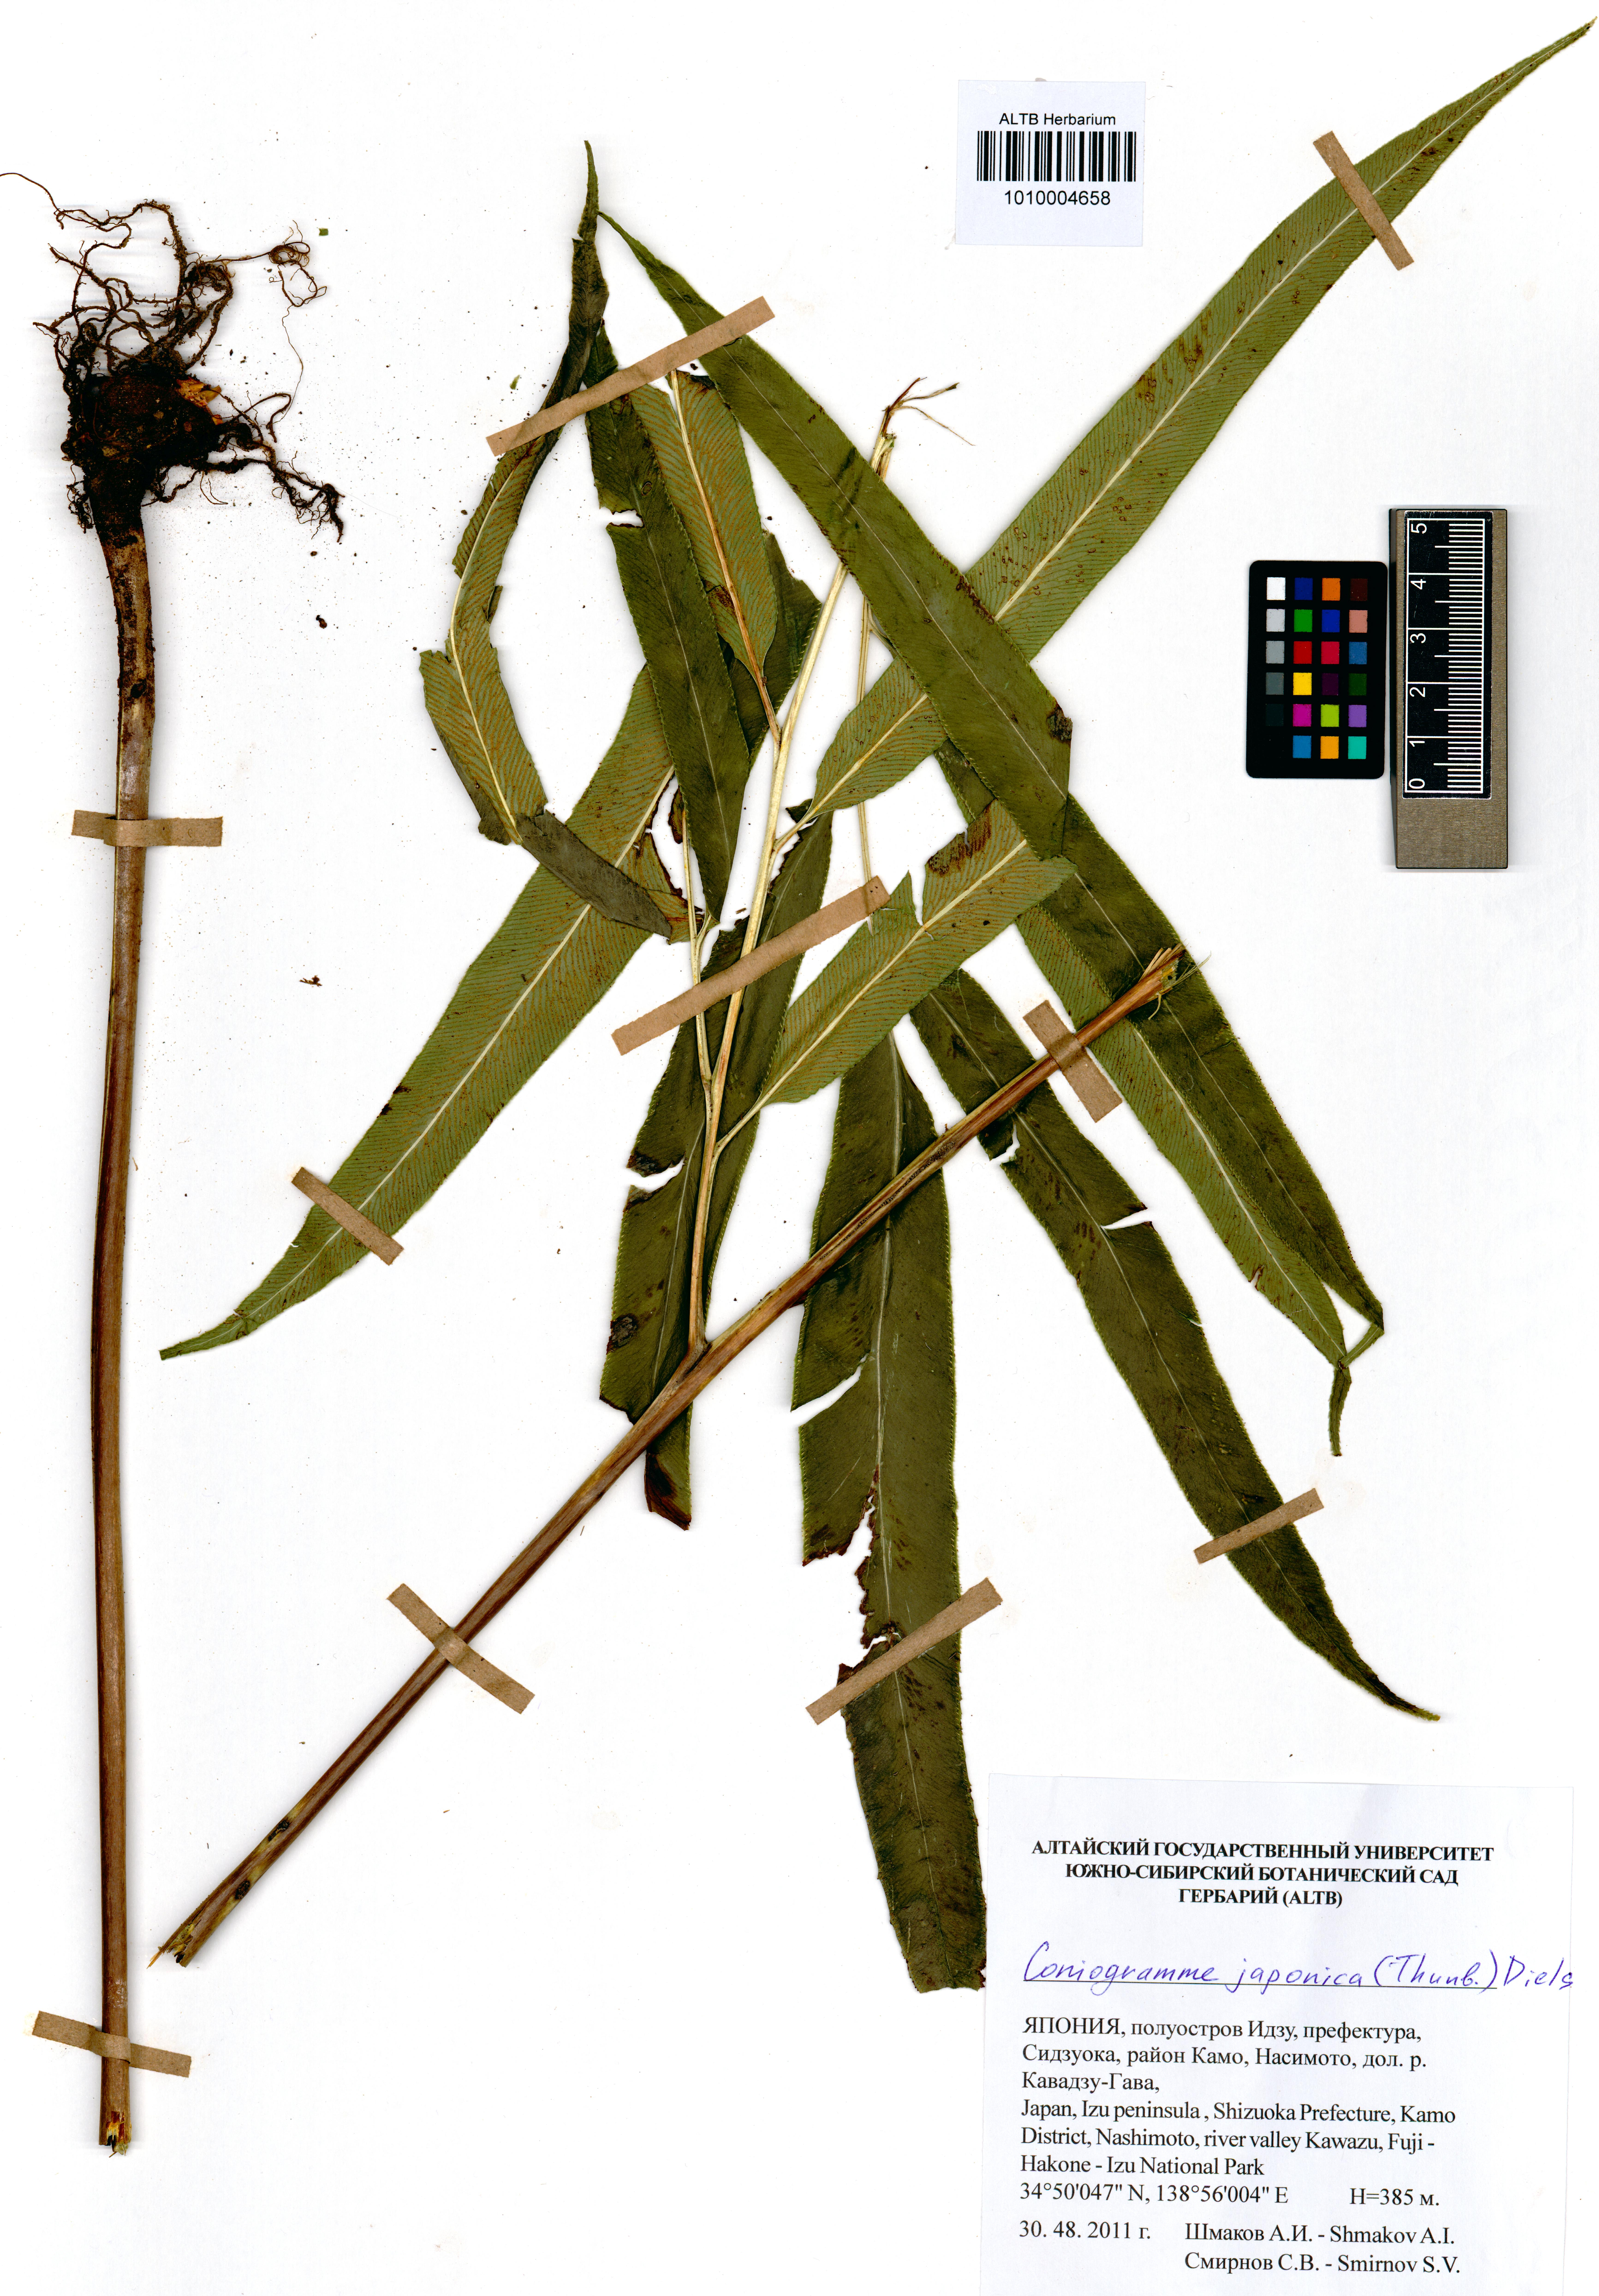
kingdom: Plantae
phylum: Tracheophyta
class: Polypodiopsida
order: Polypodiales
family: Pteridaceae
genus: Coniogramme
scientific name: Coniogramme japonica
